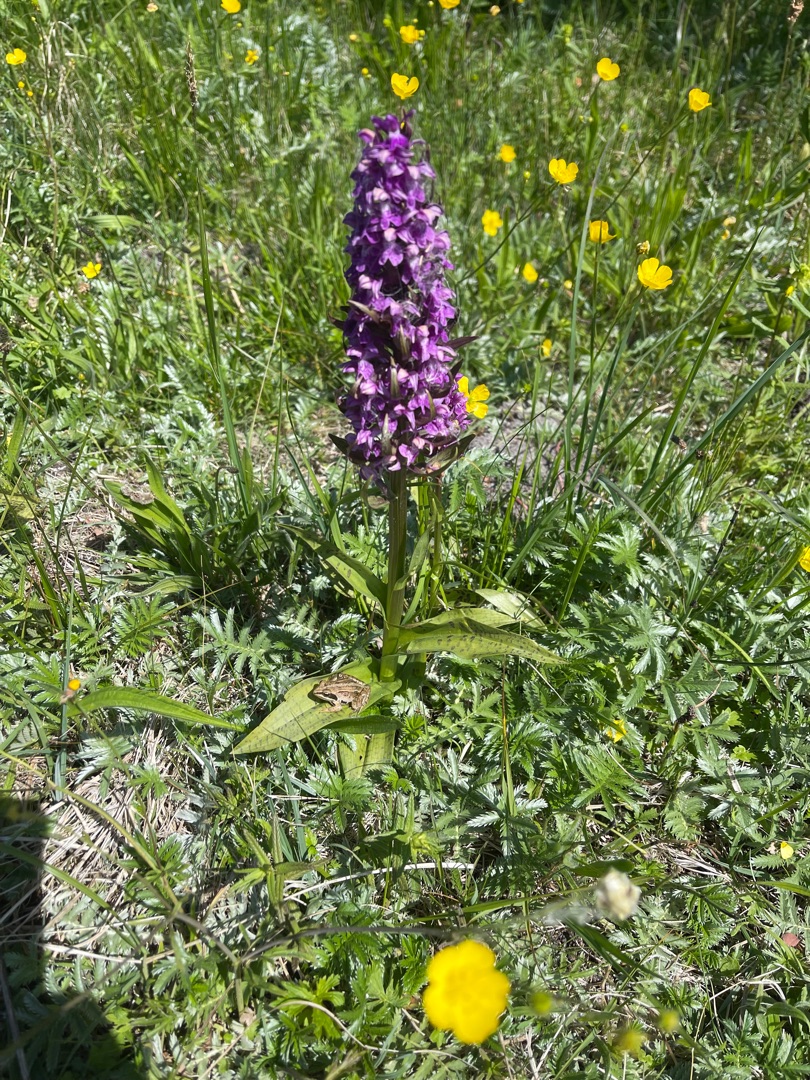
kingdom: Plantae
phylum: Tracheophyta
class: Liliopsida
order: Asparagales
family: Orchidaceae
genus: Dactylorhiza
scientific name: Dactylorhiza majalis
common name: Maj-gøgeurt
